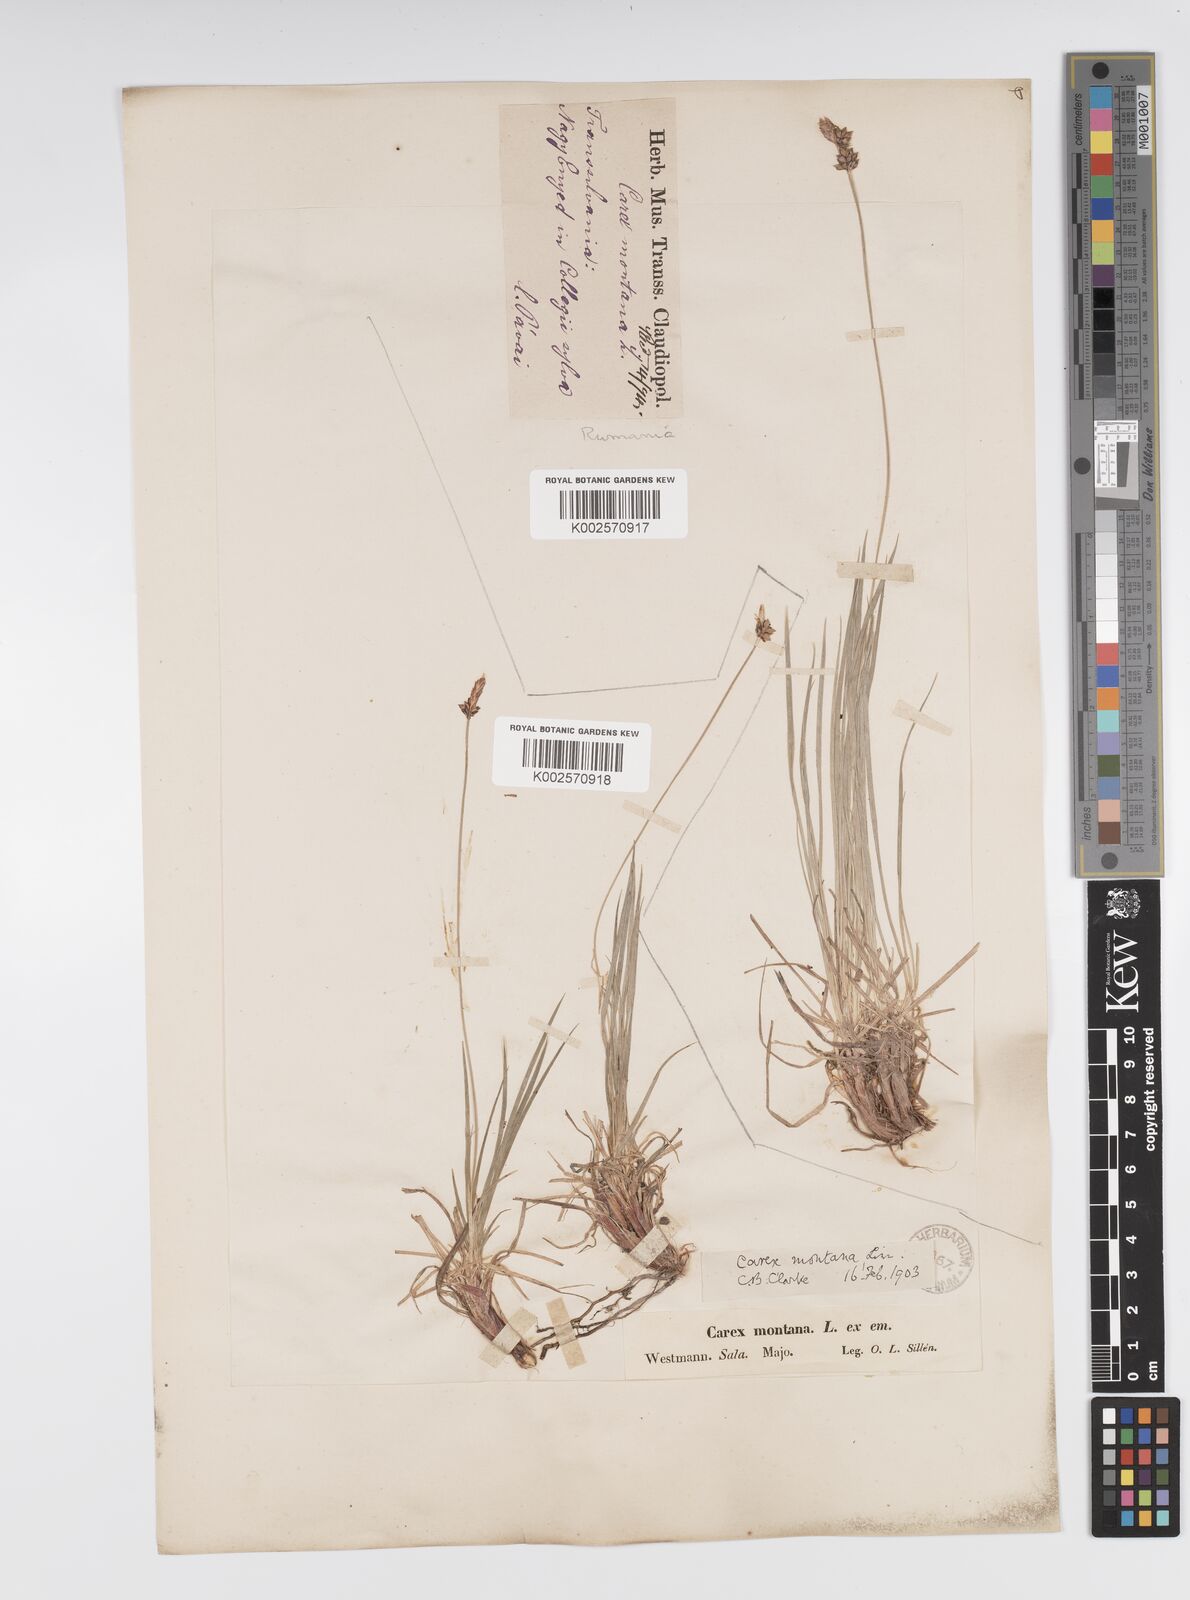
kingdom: Plantae
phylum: Tracheophyta
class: Liliopsida
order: Poales
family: Cyperaceae
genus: Carex
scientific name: Carex montana
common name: Soft-leaved sedge
